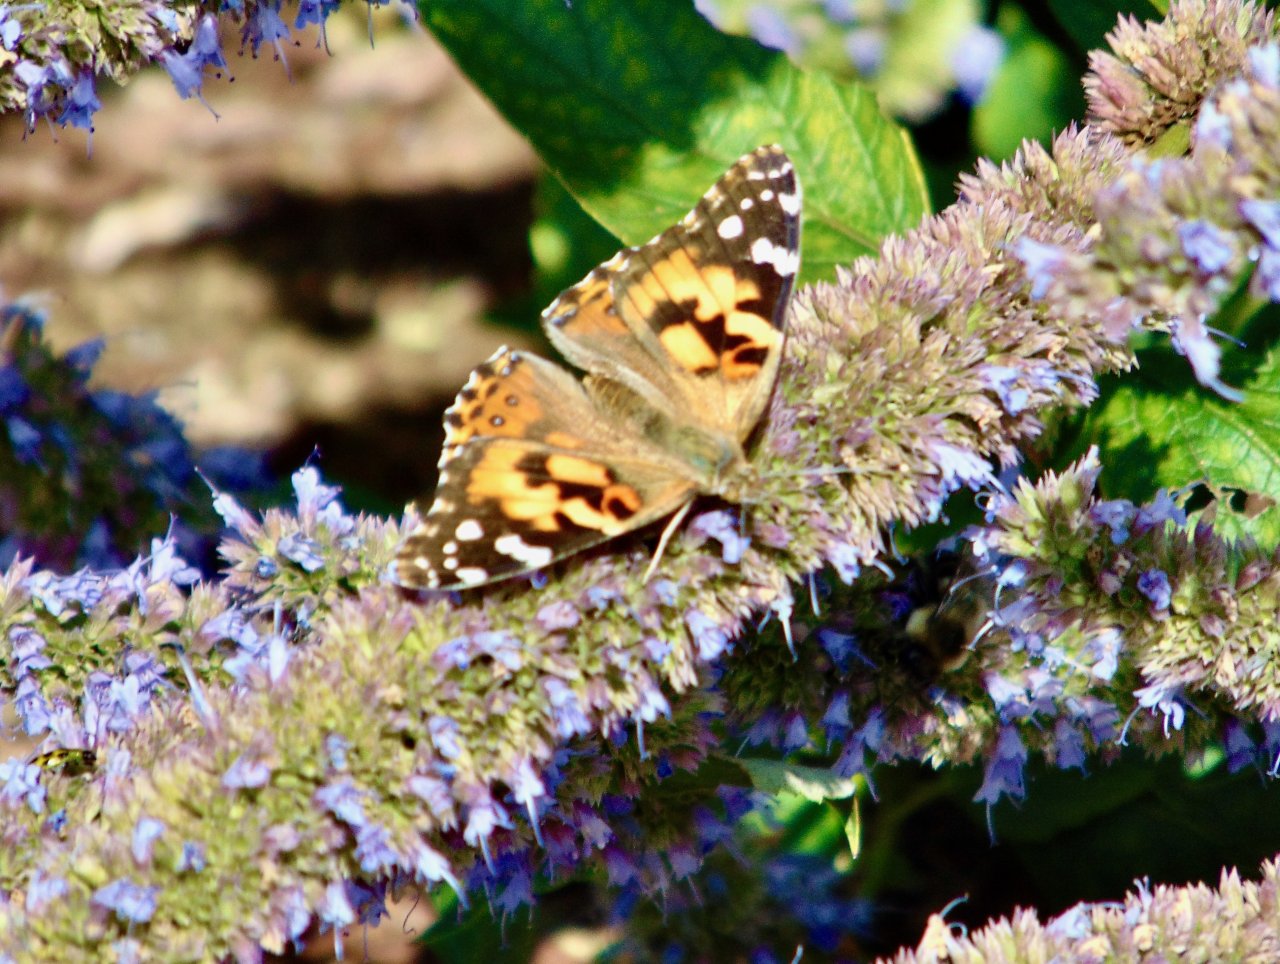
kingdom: Animalia
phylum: Arthropoda
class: Insecta
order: Lepidoptera
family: Nymphalidae
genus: Vanessa
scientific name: Vanessa cardui
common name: Painted Lady
